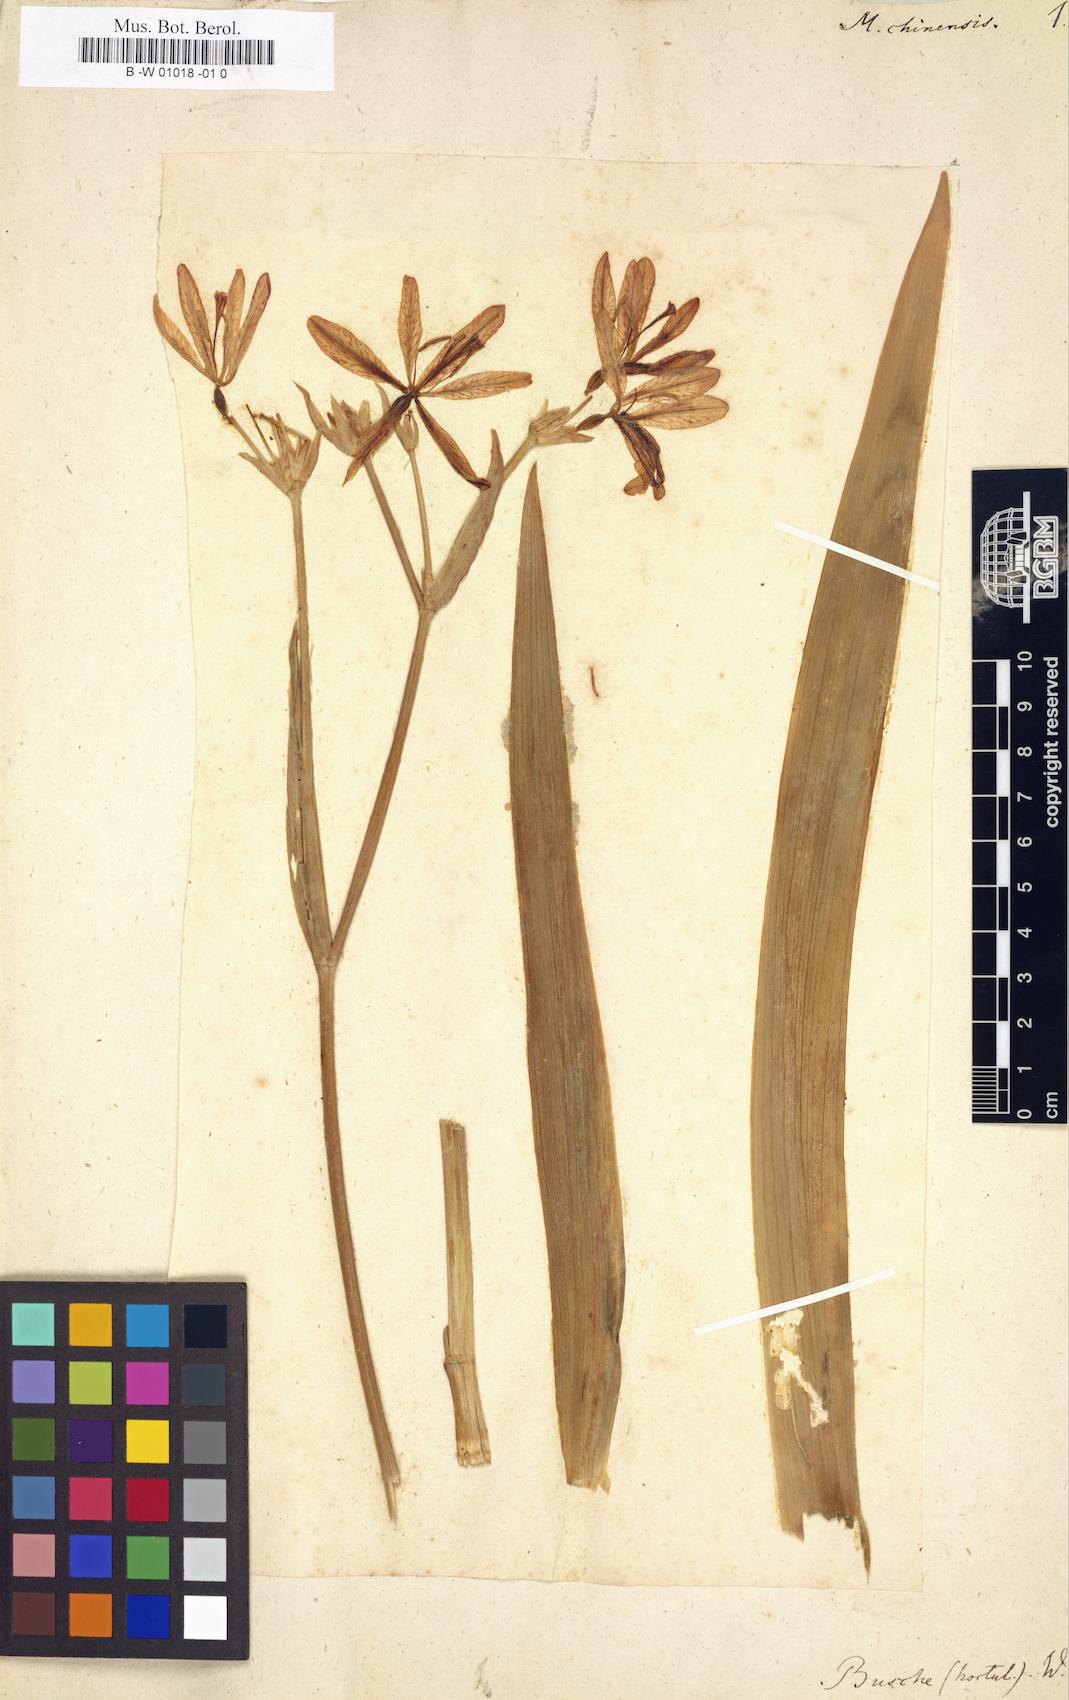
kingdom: Plantae
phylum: Tracheophyta
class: Liliopsida
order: Asparagales
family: Iridaceae
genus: Iris
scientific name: Iris domestica
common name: Belamcanda
